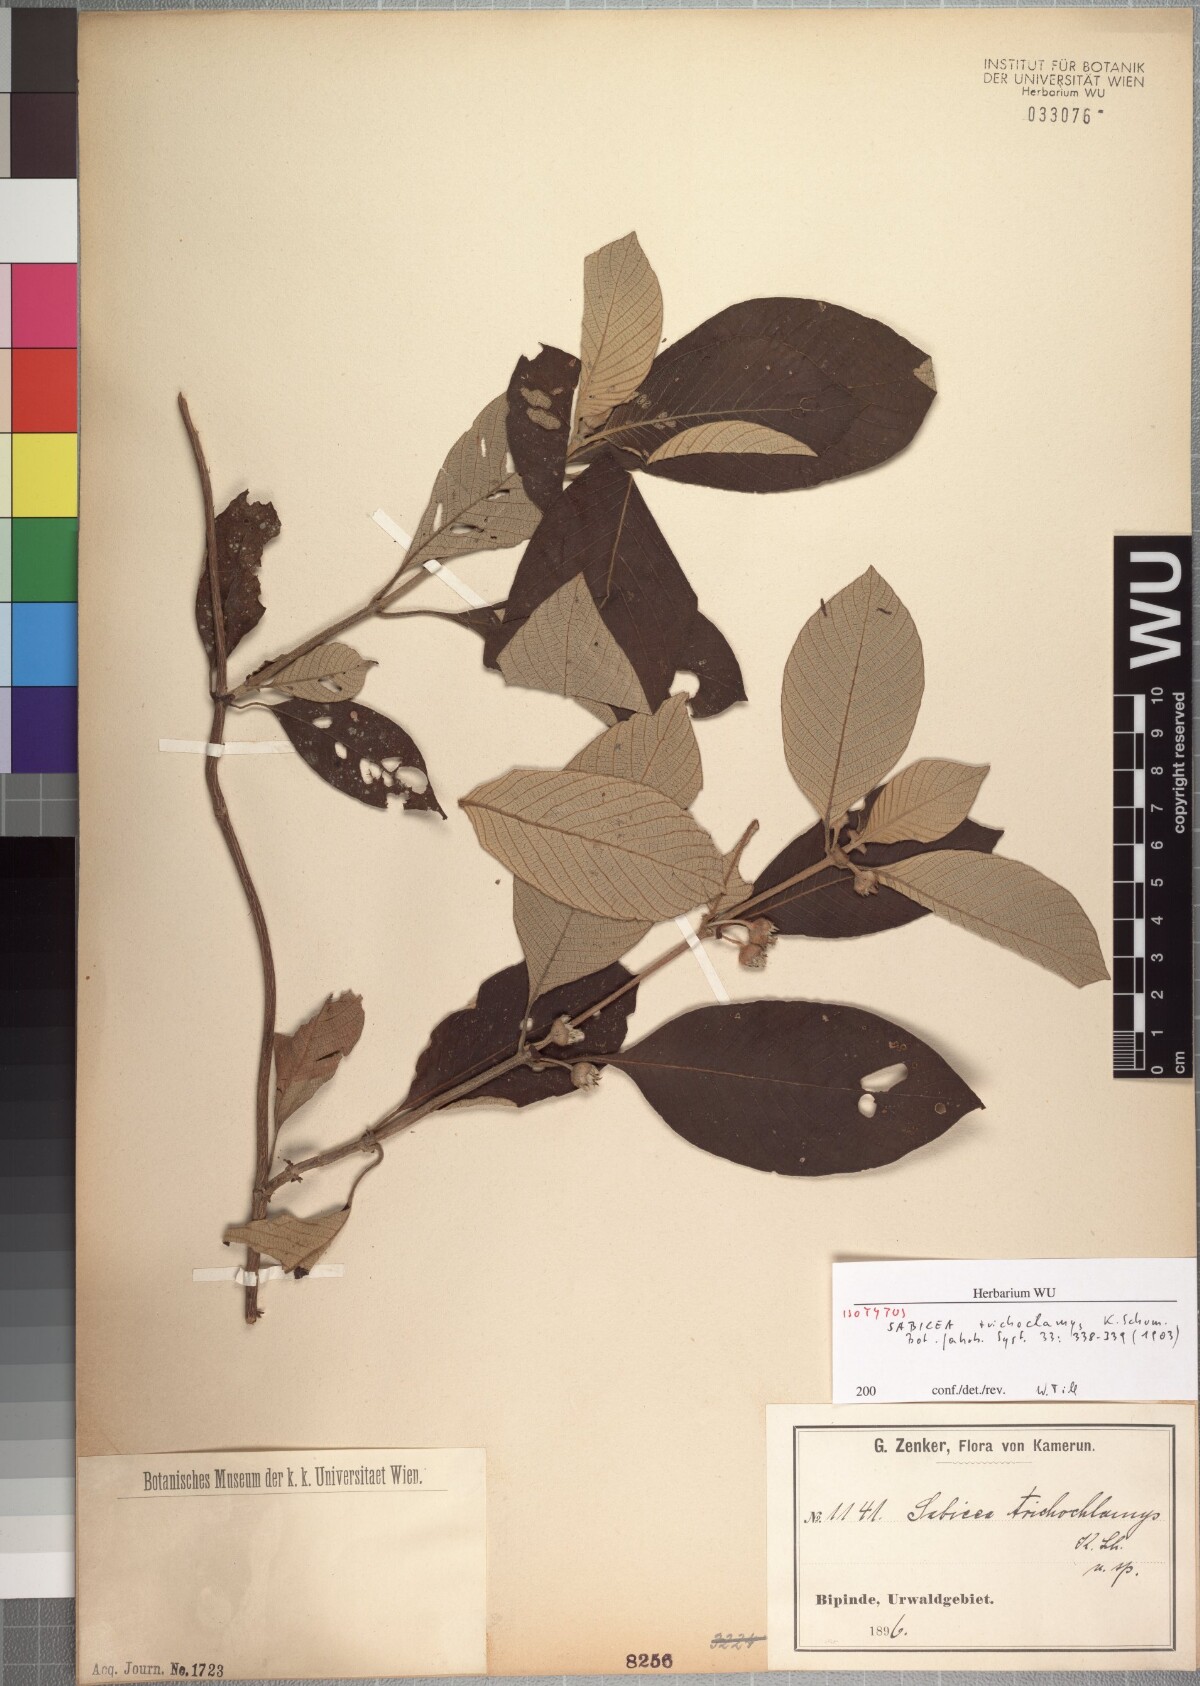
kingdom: Plantae
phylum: Tracheophyta
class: Magnoliopsida
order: Gentianales
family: Rubiaceae
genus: Sabicea
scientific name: Sabicea capitellata
